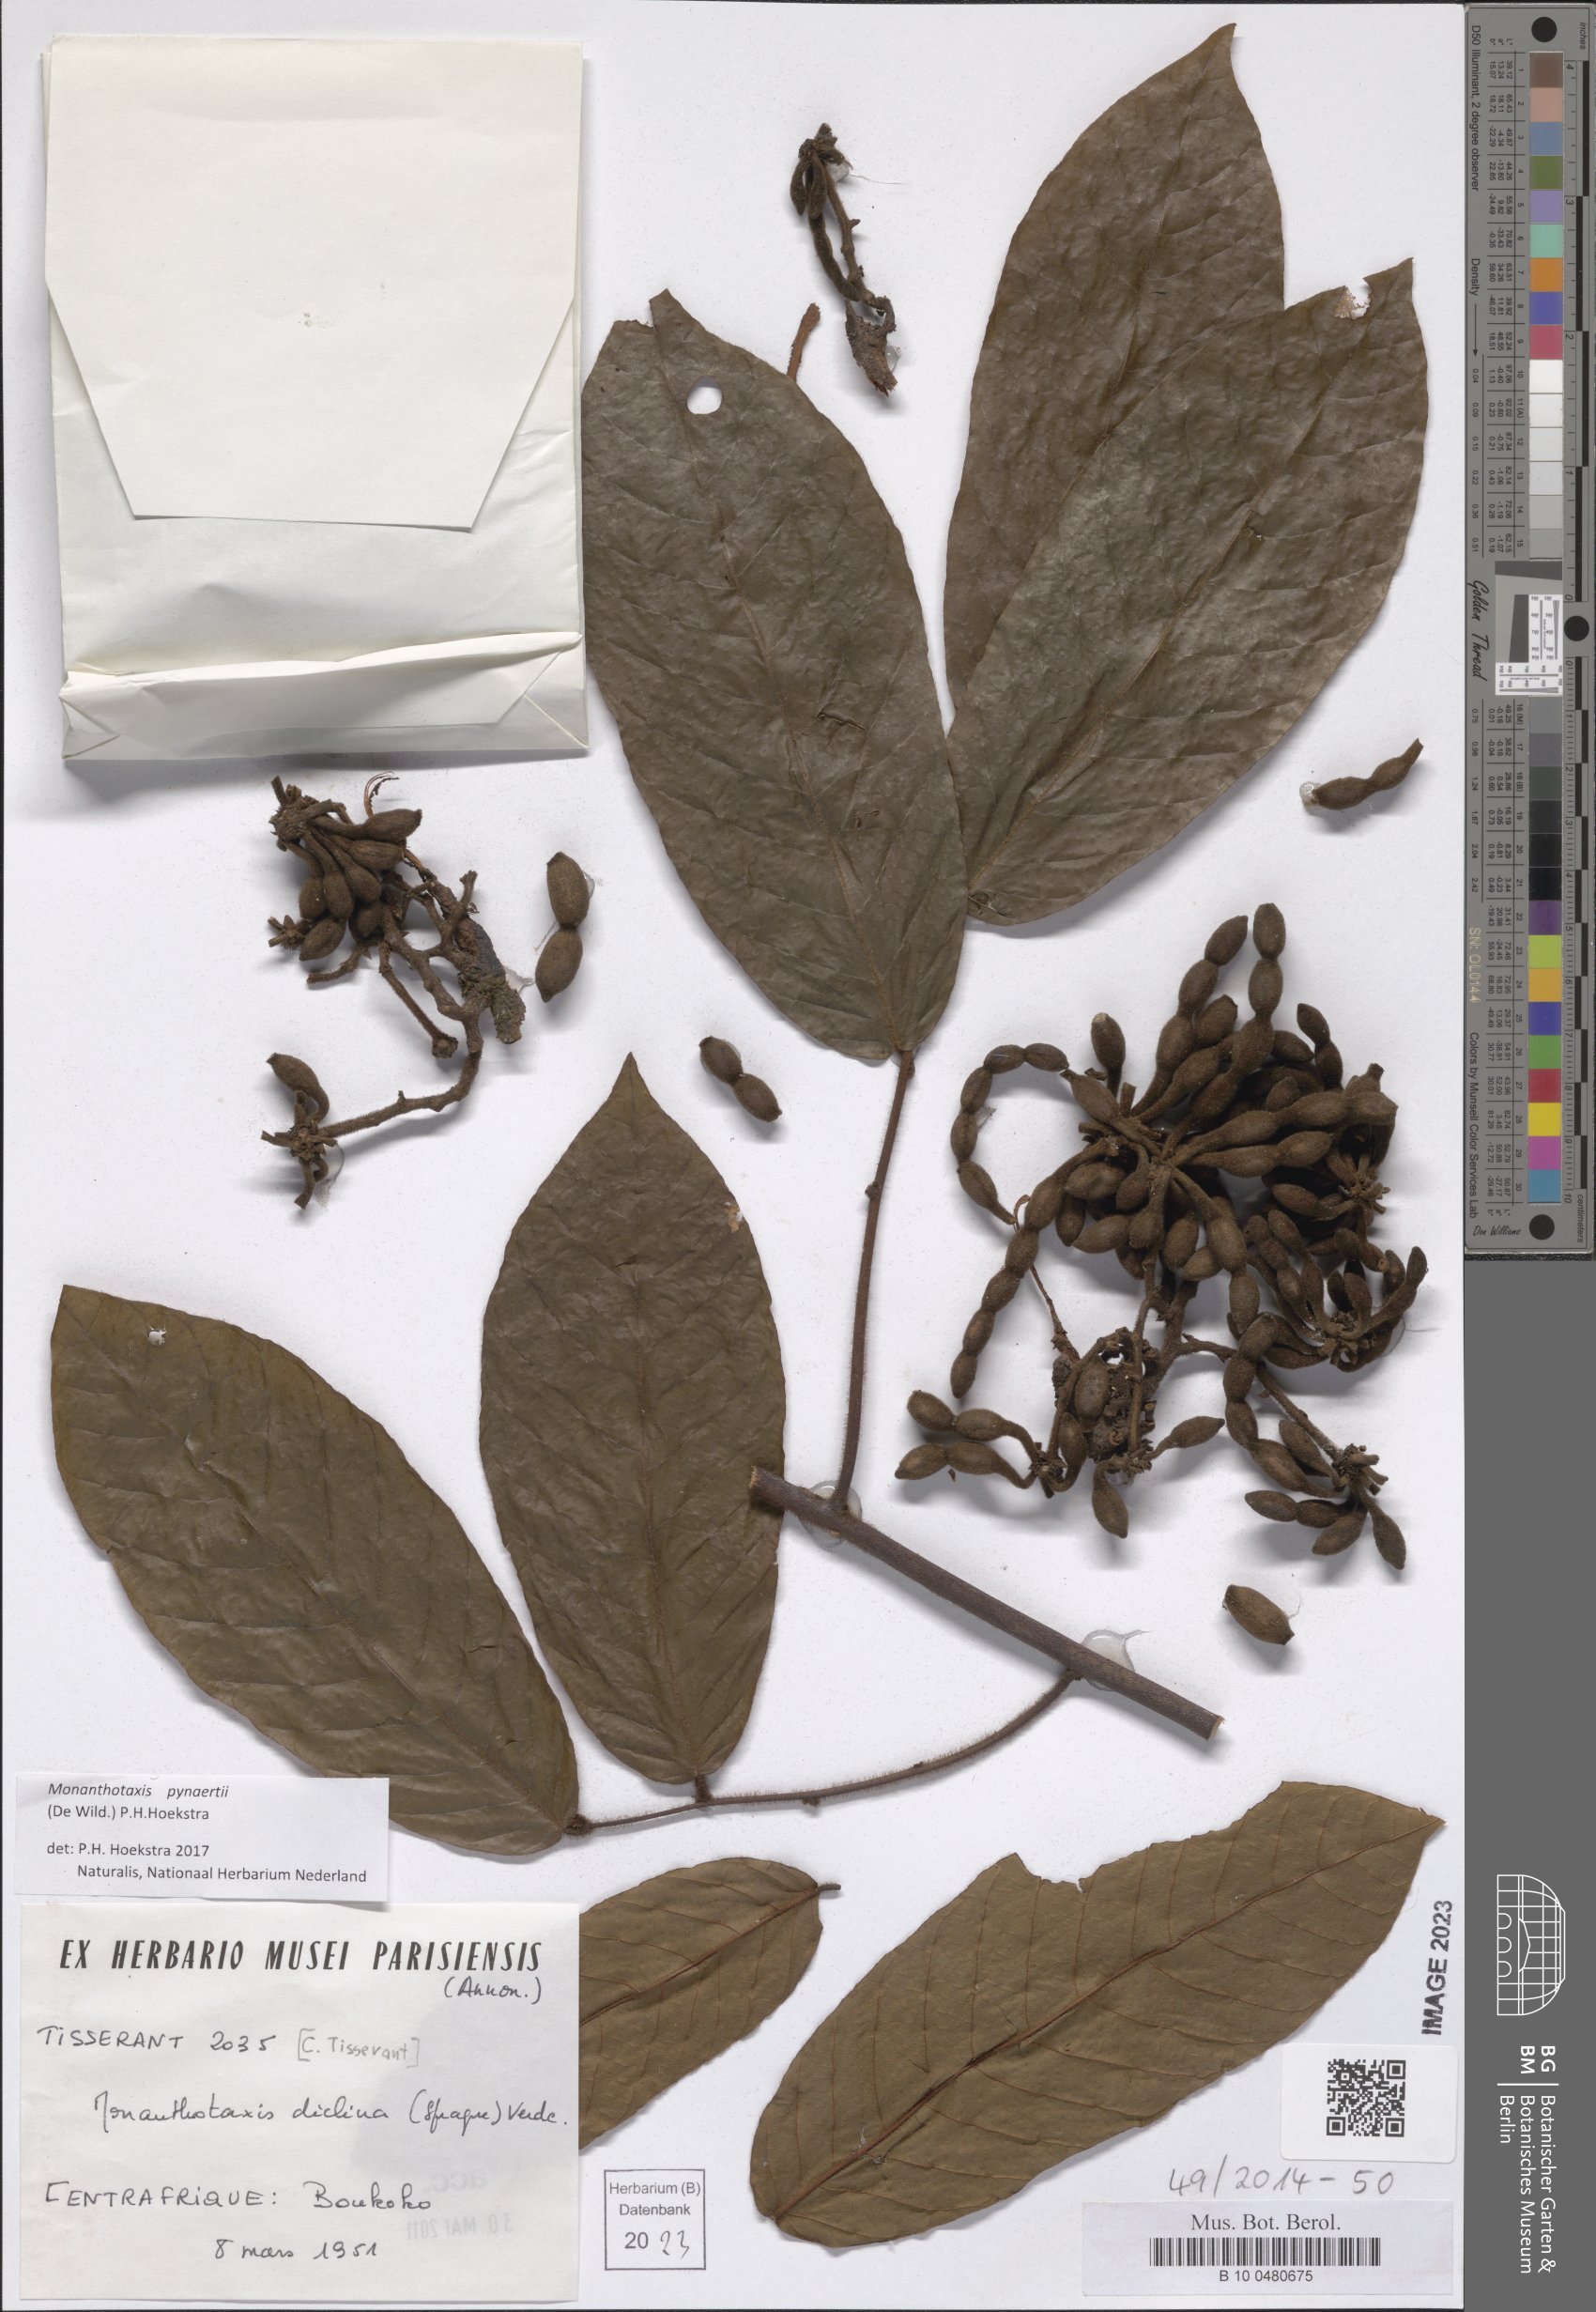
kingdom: Plantae
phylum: Tracheophyta
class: Magnoliopsida
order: Magnoliales
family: Annonaceae
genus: Monanthotaxis
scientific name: Monanthotaxis diclina
